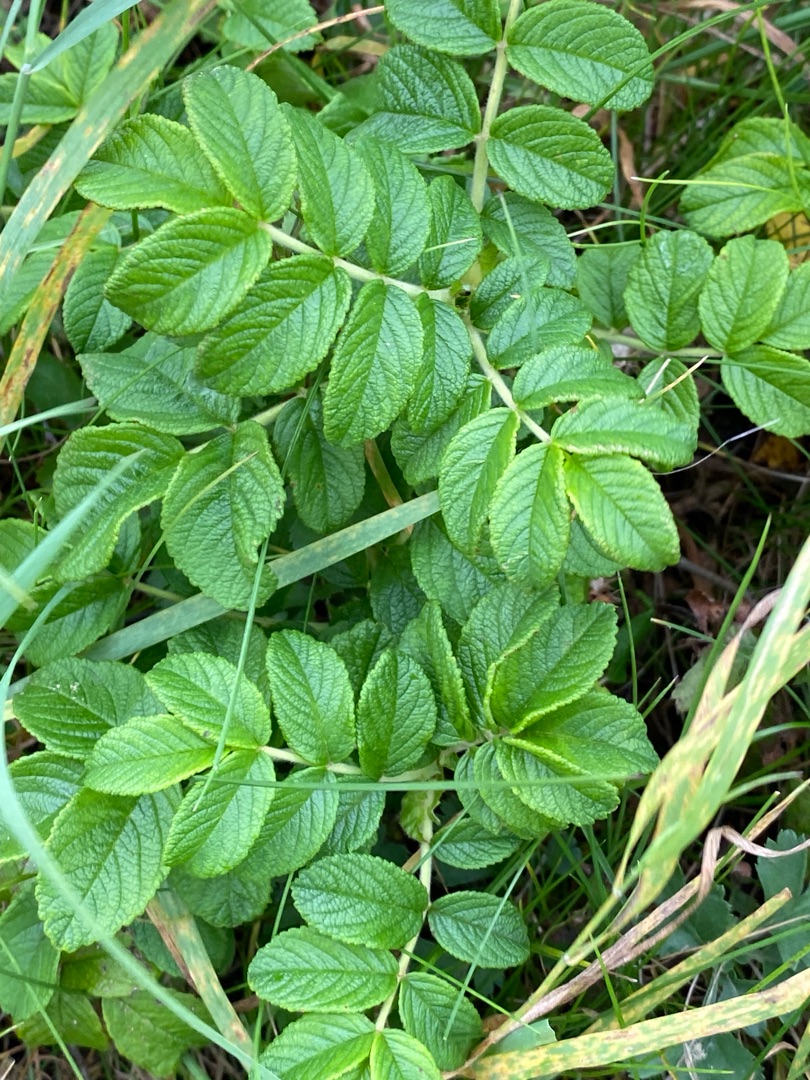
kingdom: Plantae
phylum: Tracheophyta
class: Magnoliopsida
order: Rosales
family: Rosaceae
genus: Rosa
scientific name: Rosa rugosa
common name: Rynket rose
